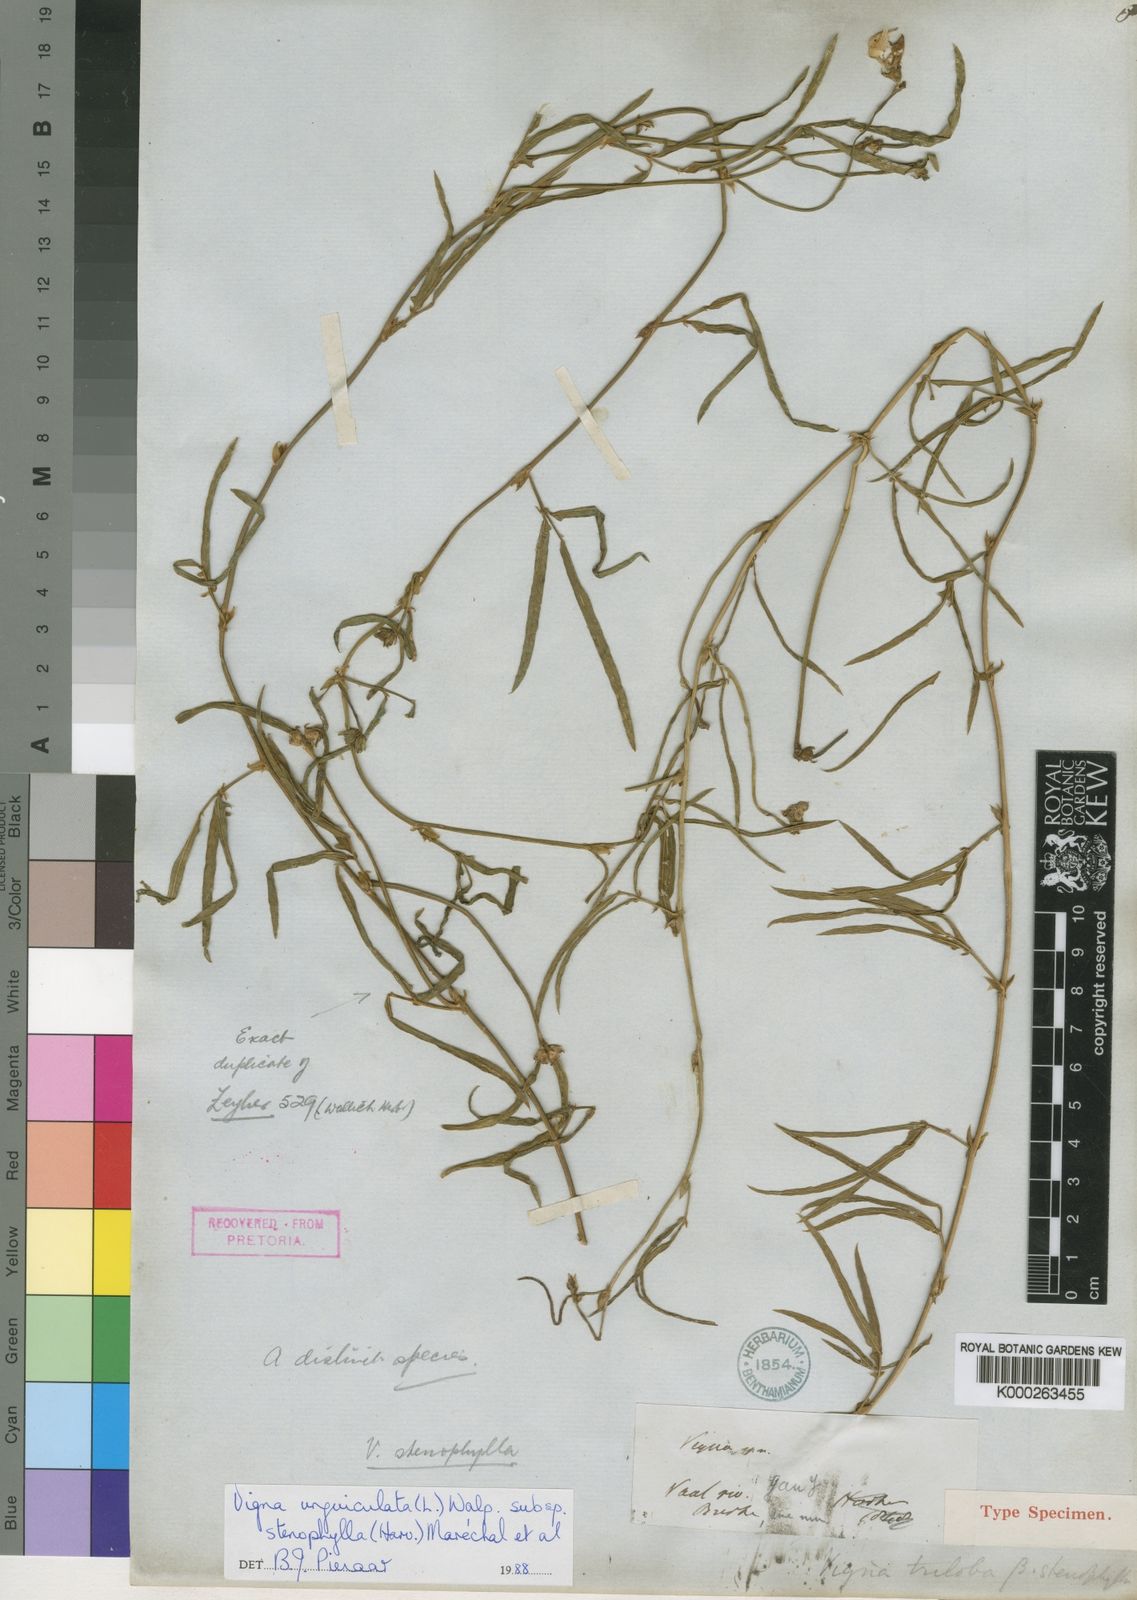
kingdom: Plantae
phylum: Tracheophyta
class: Magnoliopsida
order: Fabales
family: Fabaceae
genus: Vigna
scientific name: Vigna unguiculata
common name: Cowpea
